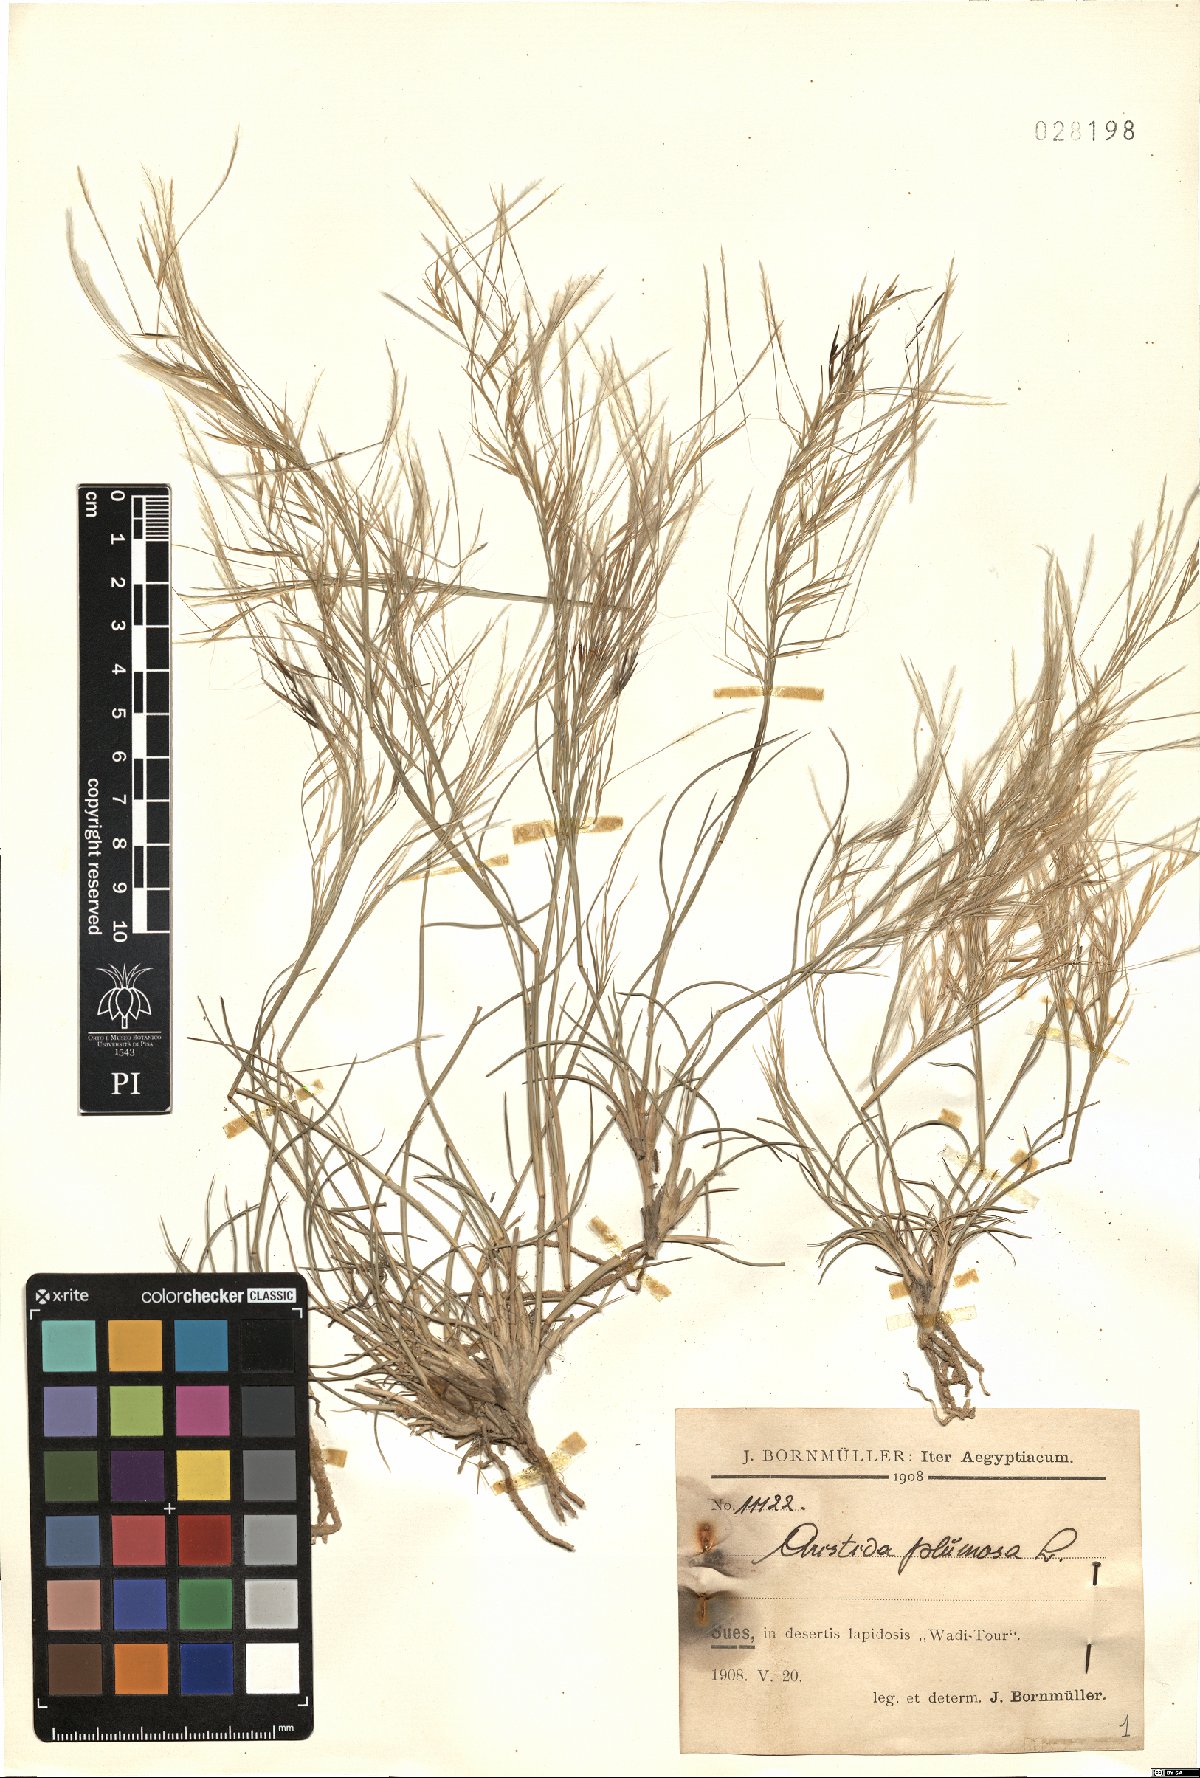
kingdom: Plantae
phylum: Tracheophyta
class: Liliopsida
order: Poales
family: Poaceae
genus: Stipagrostis
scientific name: Stipagrostis plumosa
